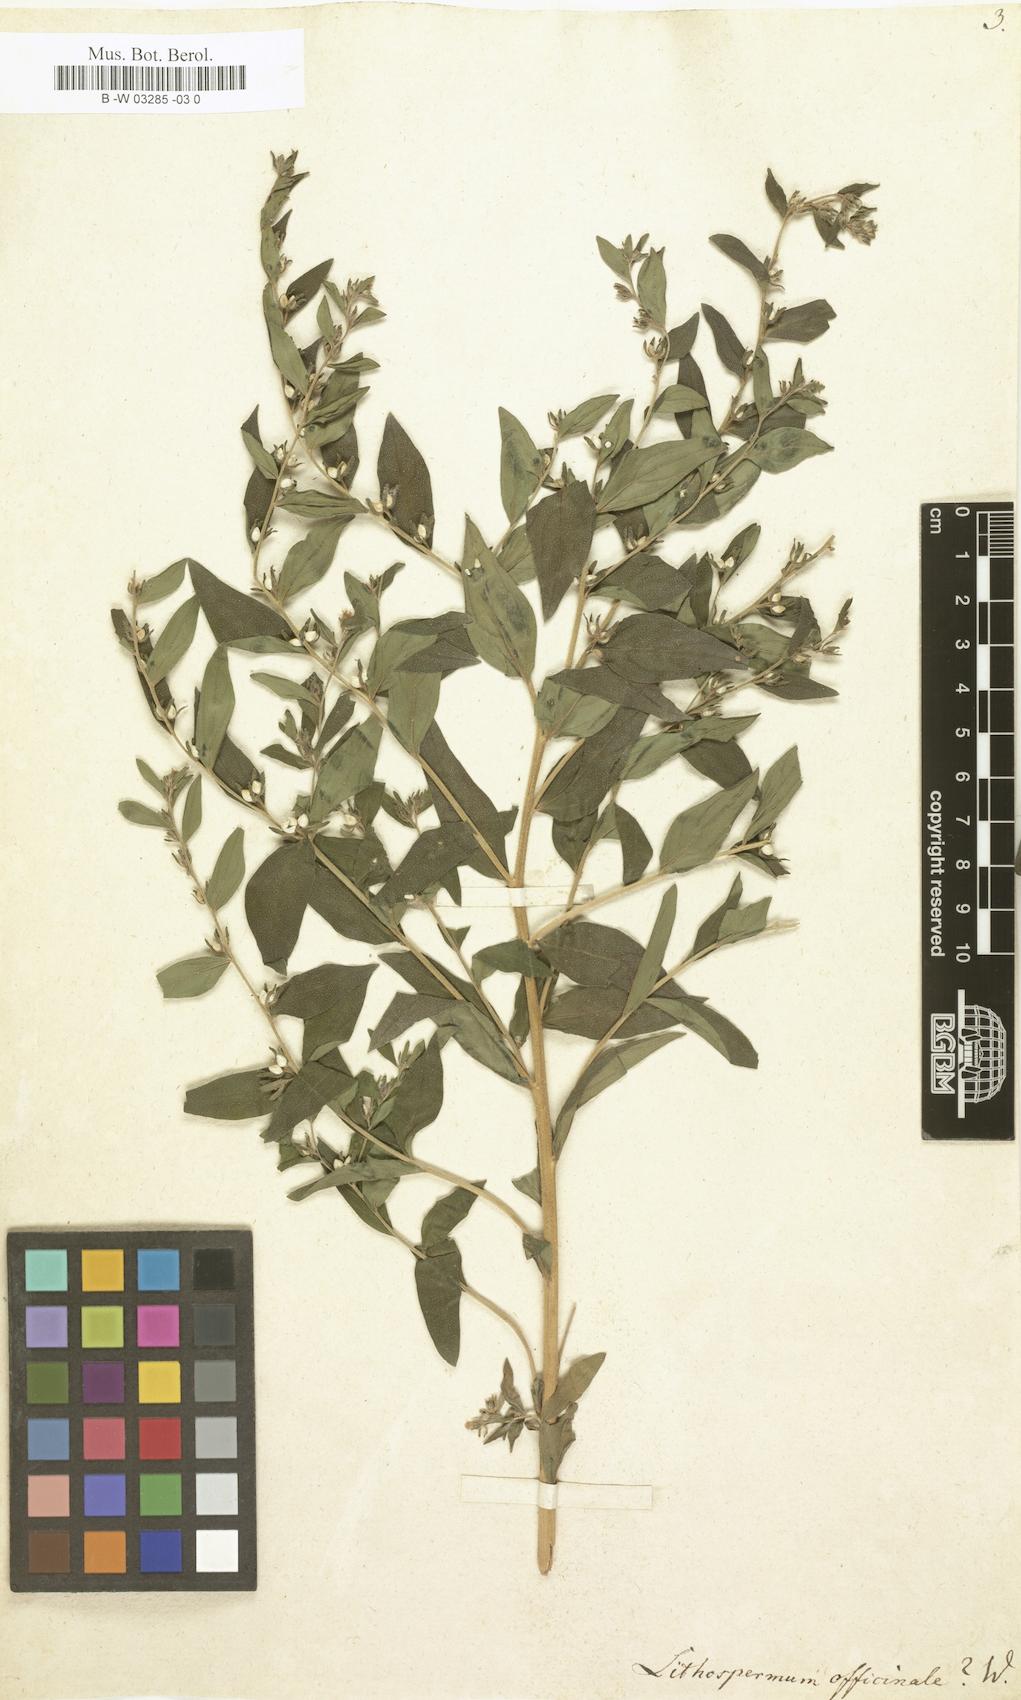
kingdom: Plantae
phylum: Tracheophyta
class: Magnoliopsida
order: Boraginales
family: Boraginaceae
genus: Lithospermum
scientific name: Lithospermum officinale
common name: Common gromwell
